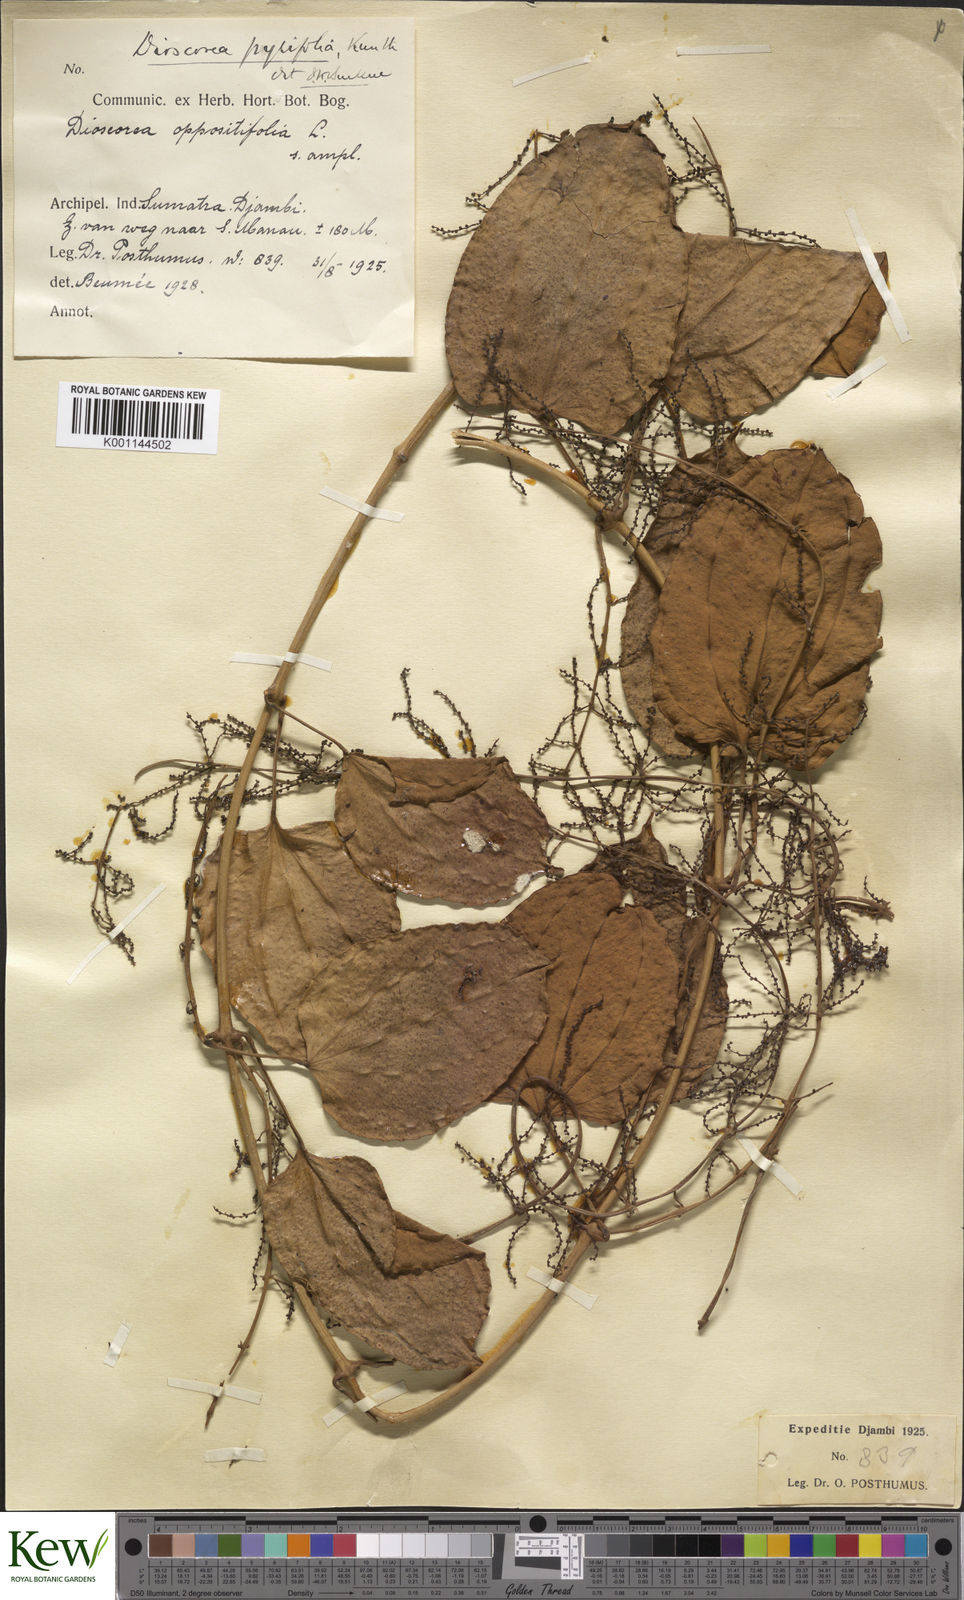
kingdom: Plantae
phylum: Tracheophyta
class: Liliopsida
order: Dioscoreales
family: Dioscoreaceae
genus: Dioscorea
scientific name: Dioscorea pyrifolia
